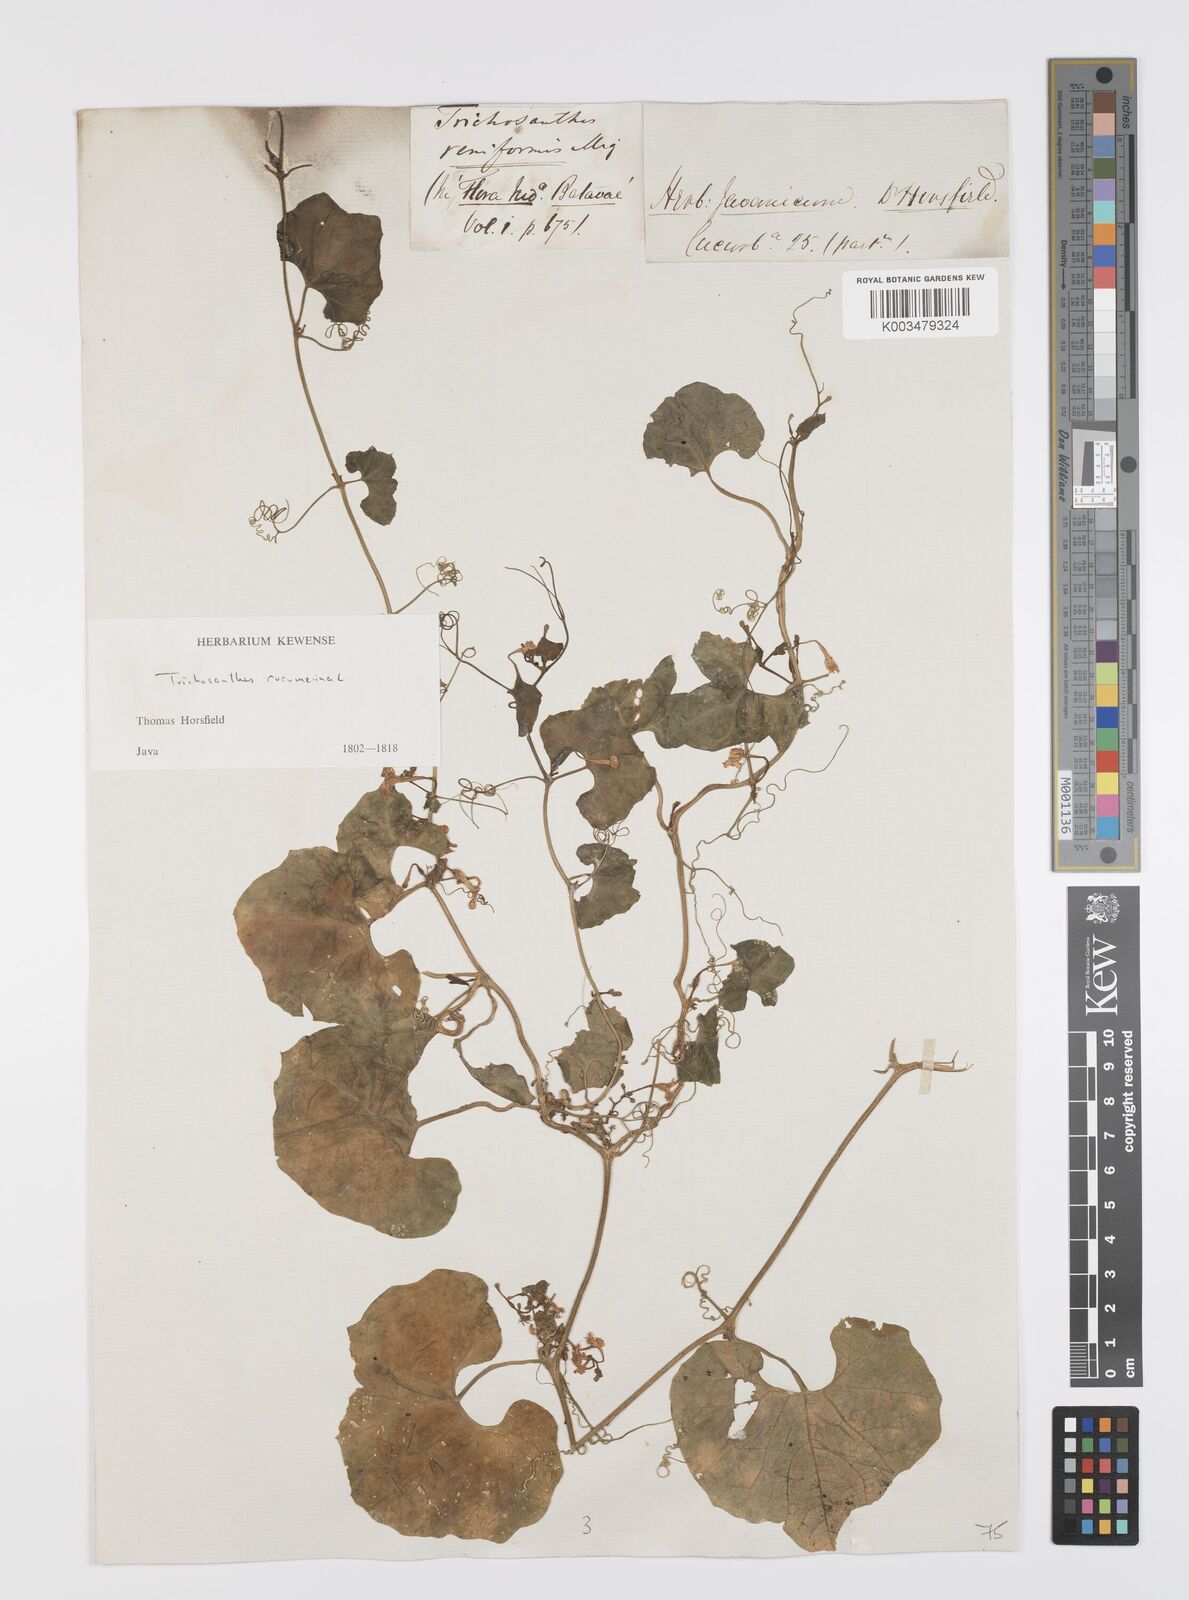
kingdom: Plantae
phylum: Tracheophyta
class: Magnoliopsida
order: Cucurbitales
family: Cucurbitaceae
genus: Trichosanthes
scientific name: Trichosanthes cucumerina
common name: Snakegourd
